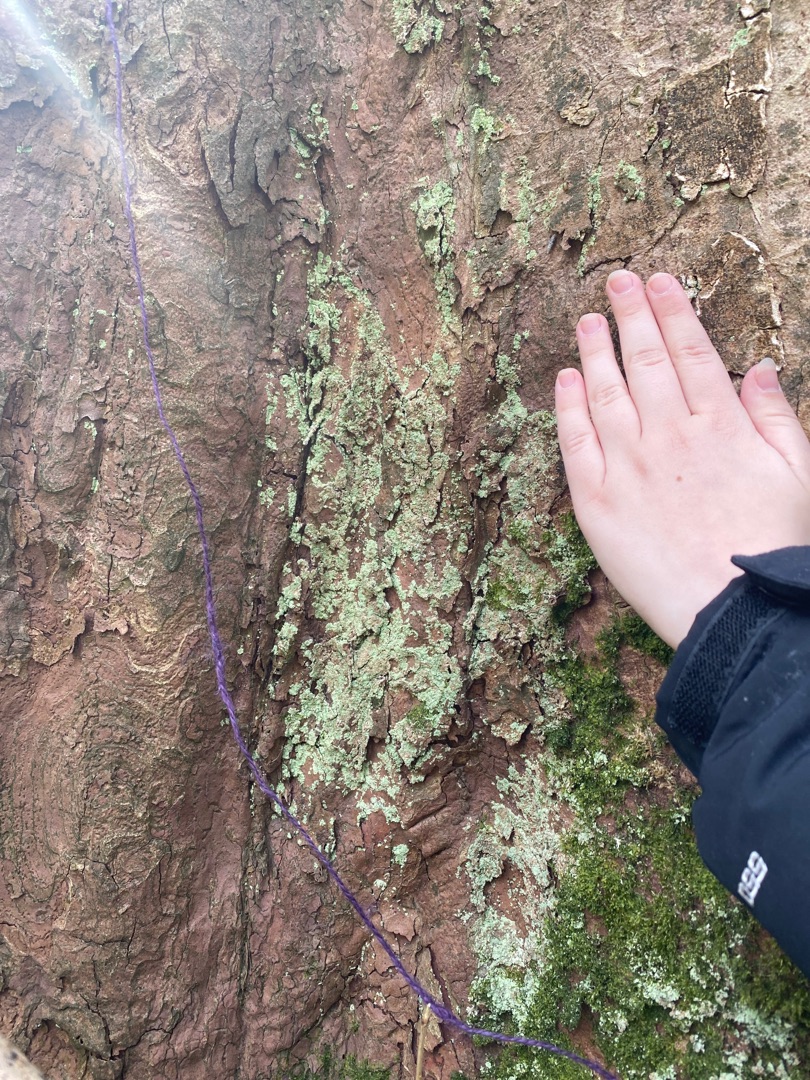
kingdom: Fungi
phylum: Ascomycota
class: Lecanoromycetes
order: Lecanorales
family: Stereocaulaceae
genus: Lepraria
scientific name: Lepraria
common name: Støvlav
